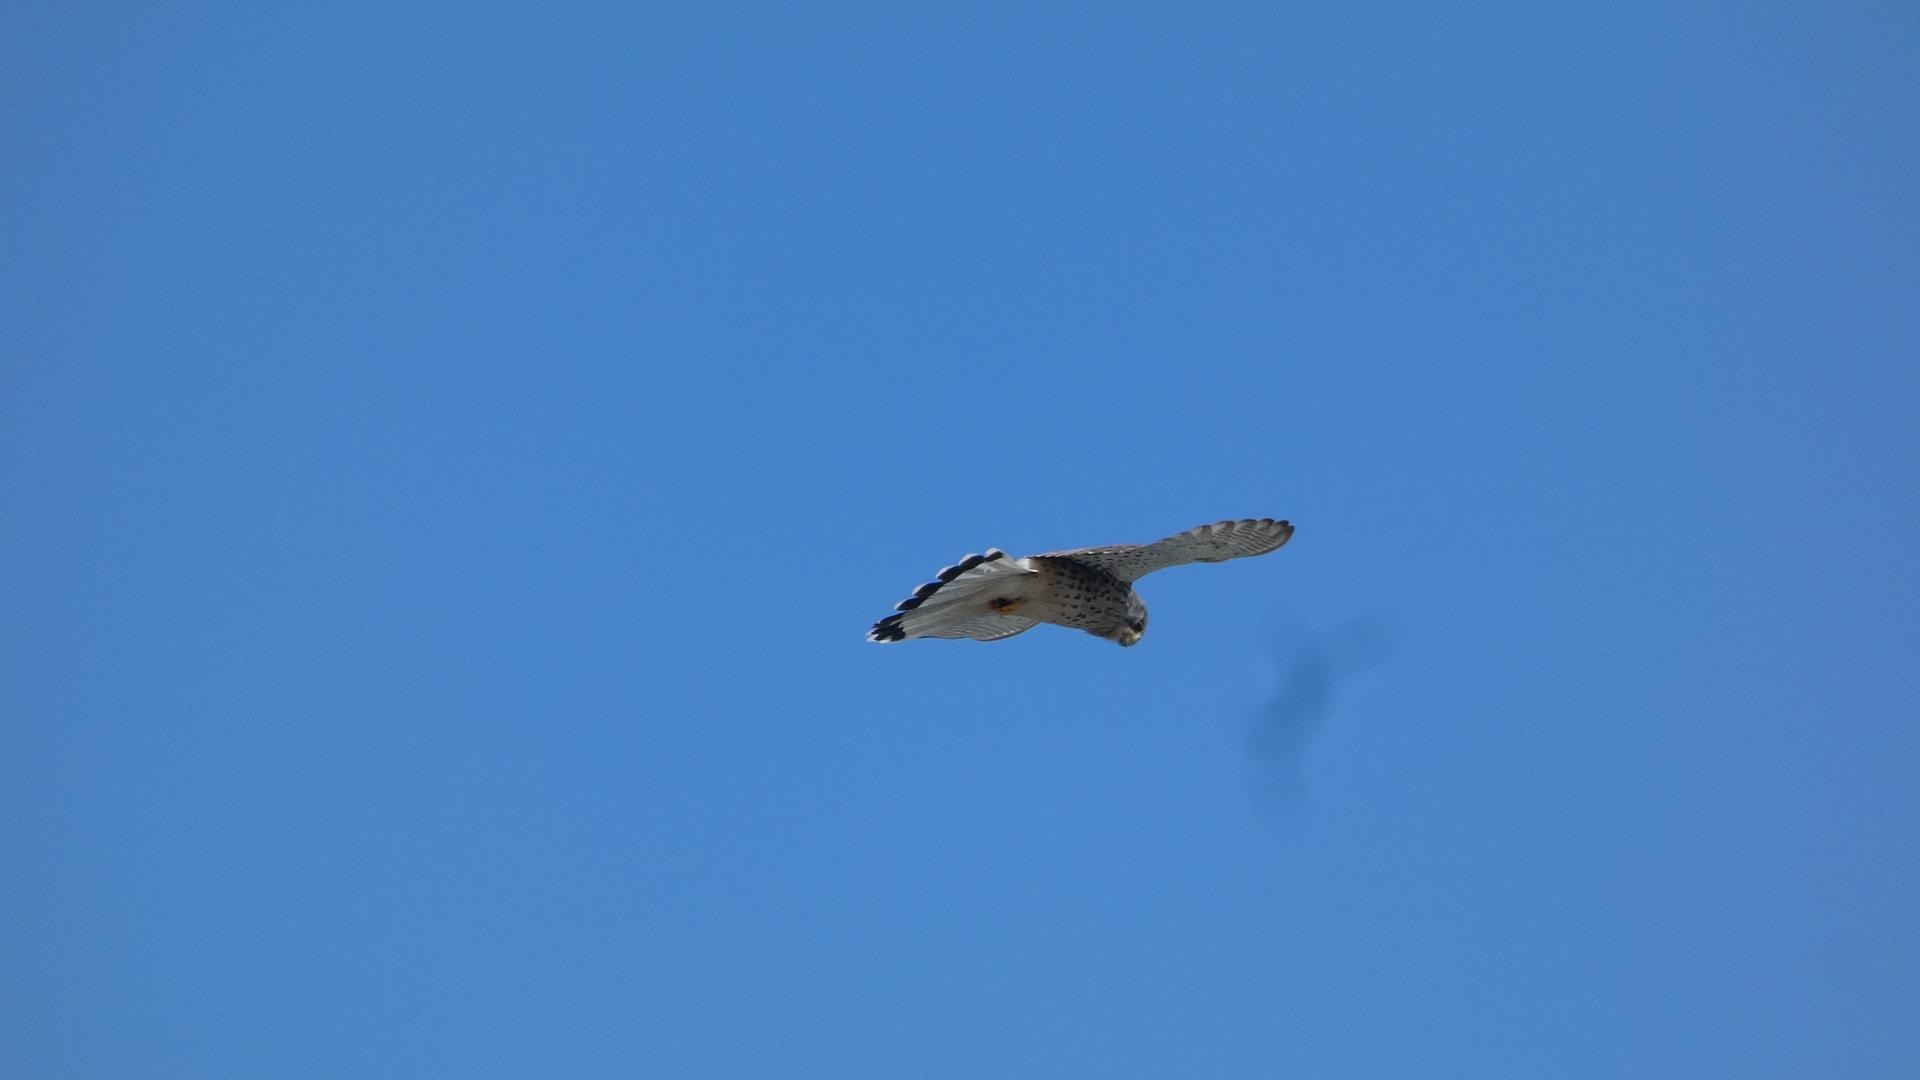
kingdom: Animalia
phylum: Chordata
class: Aves
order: Falconiformes
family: Falconidae
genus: Falco
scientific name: Falco tinnunculus
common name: Tårnfalk
